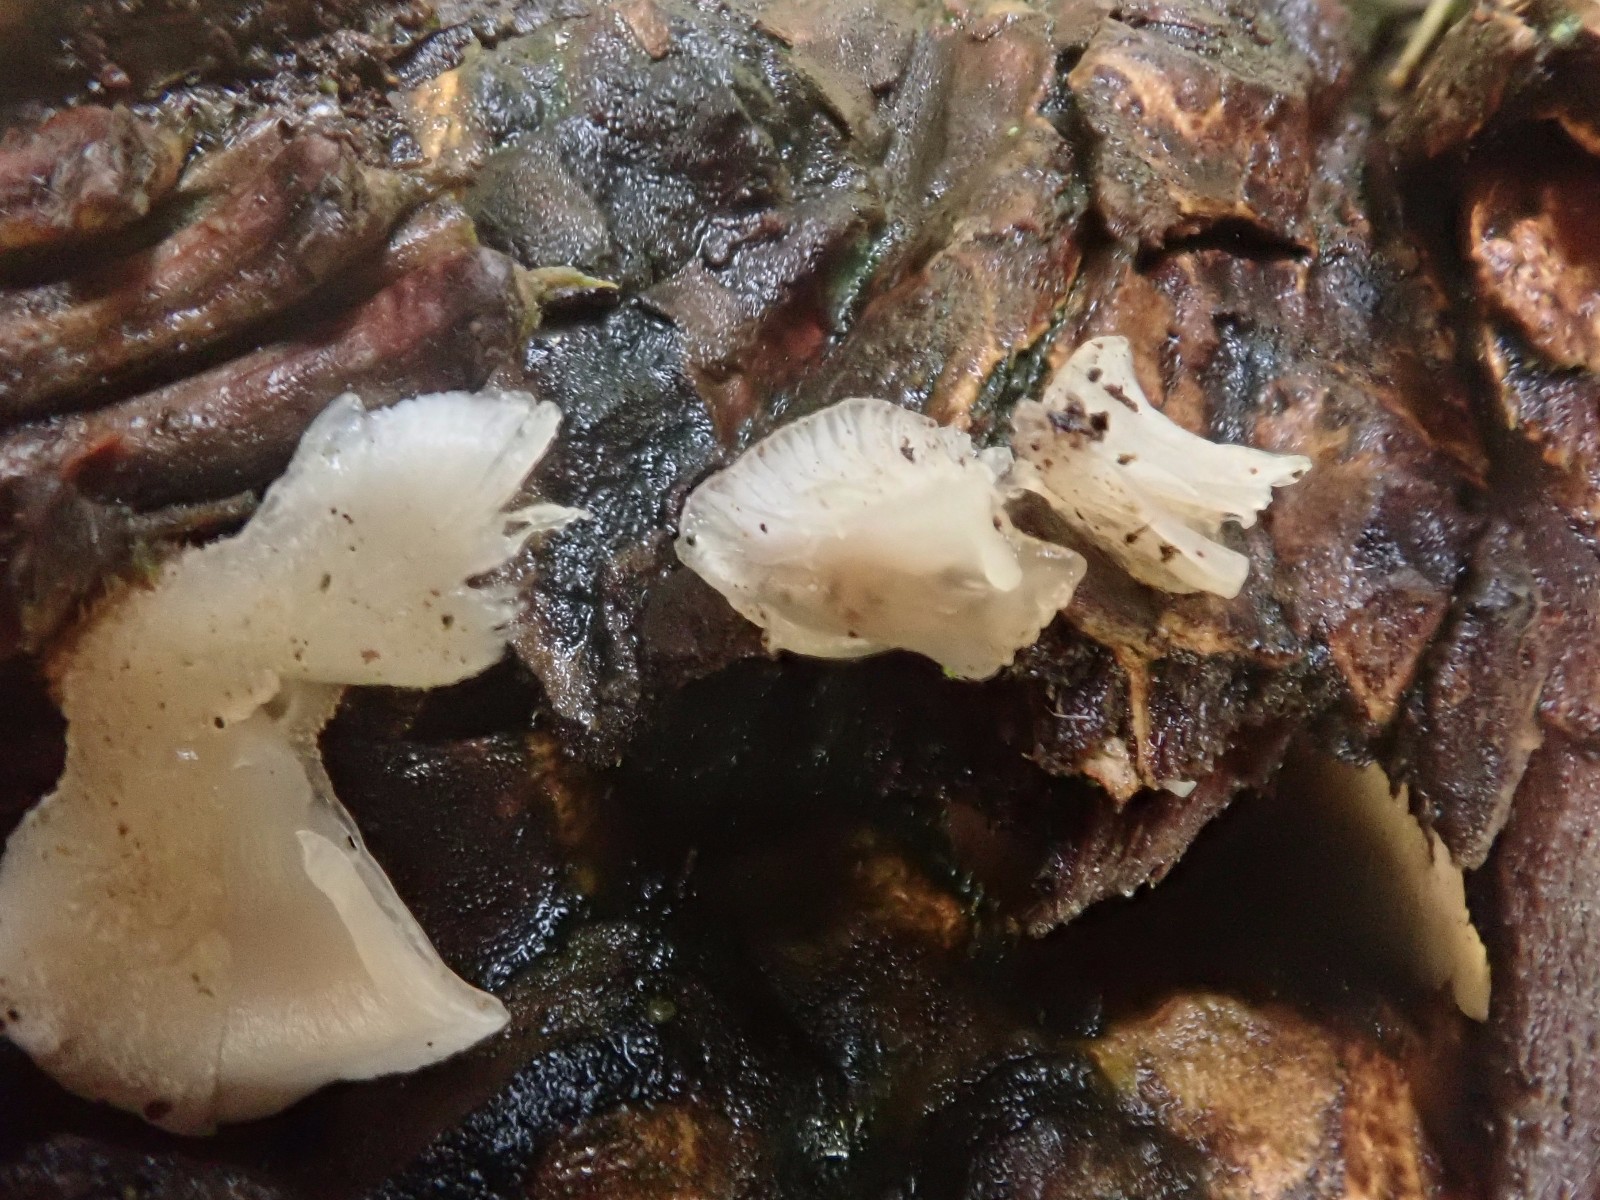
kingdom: Fungi
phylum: Basidiomycota
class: Agaricomycetes
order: Agaricales
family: Mycenaceae
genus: Panellus
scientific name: Panellus mitis
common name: mild epaulethat
